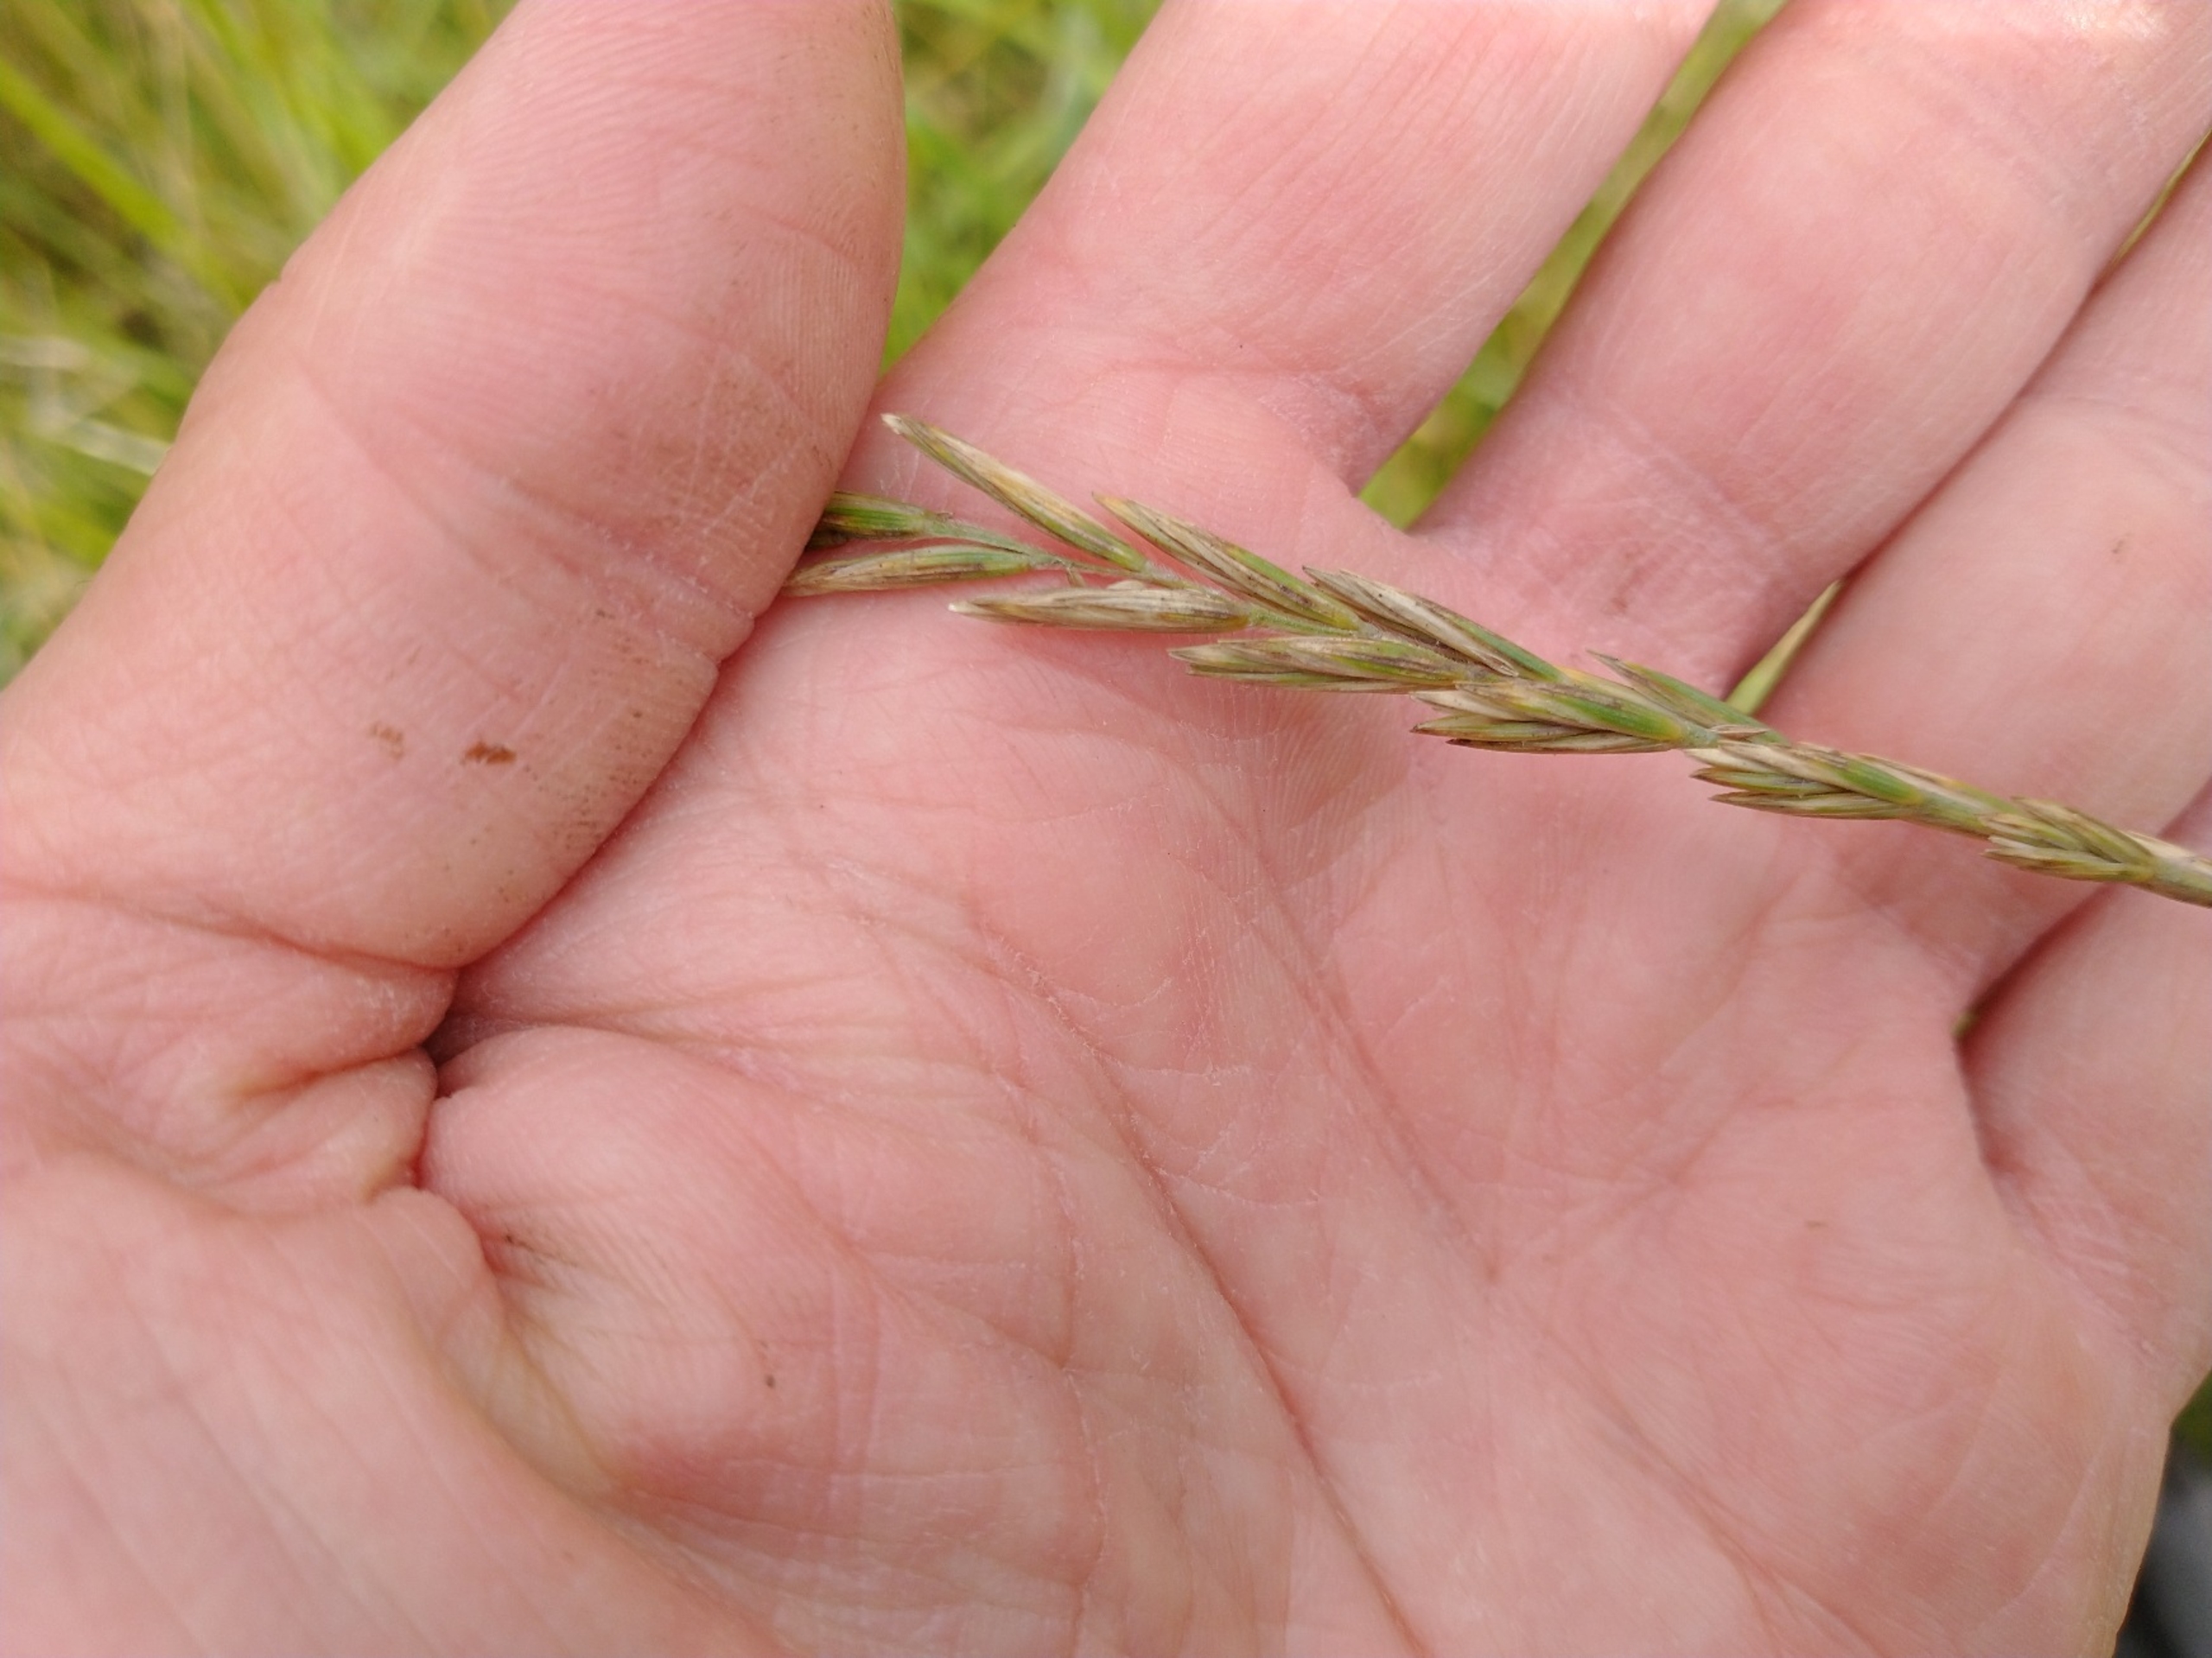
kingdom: Plantae
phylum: Tracheophyta
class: Liliopsida
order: Poales
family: Poaceae
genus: Elymus
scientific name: Elymus repens
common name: Almindelig kvik
